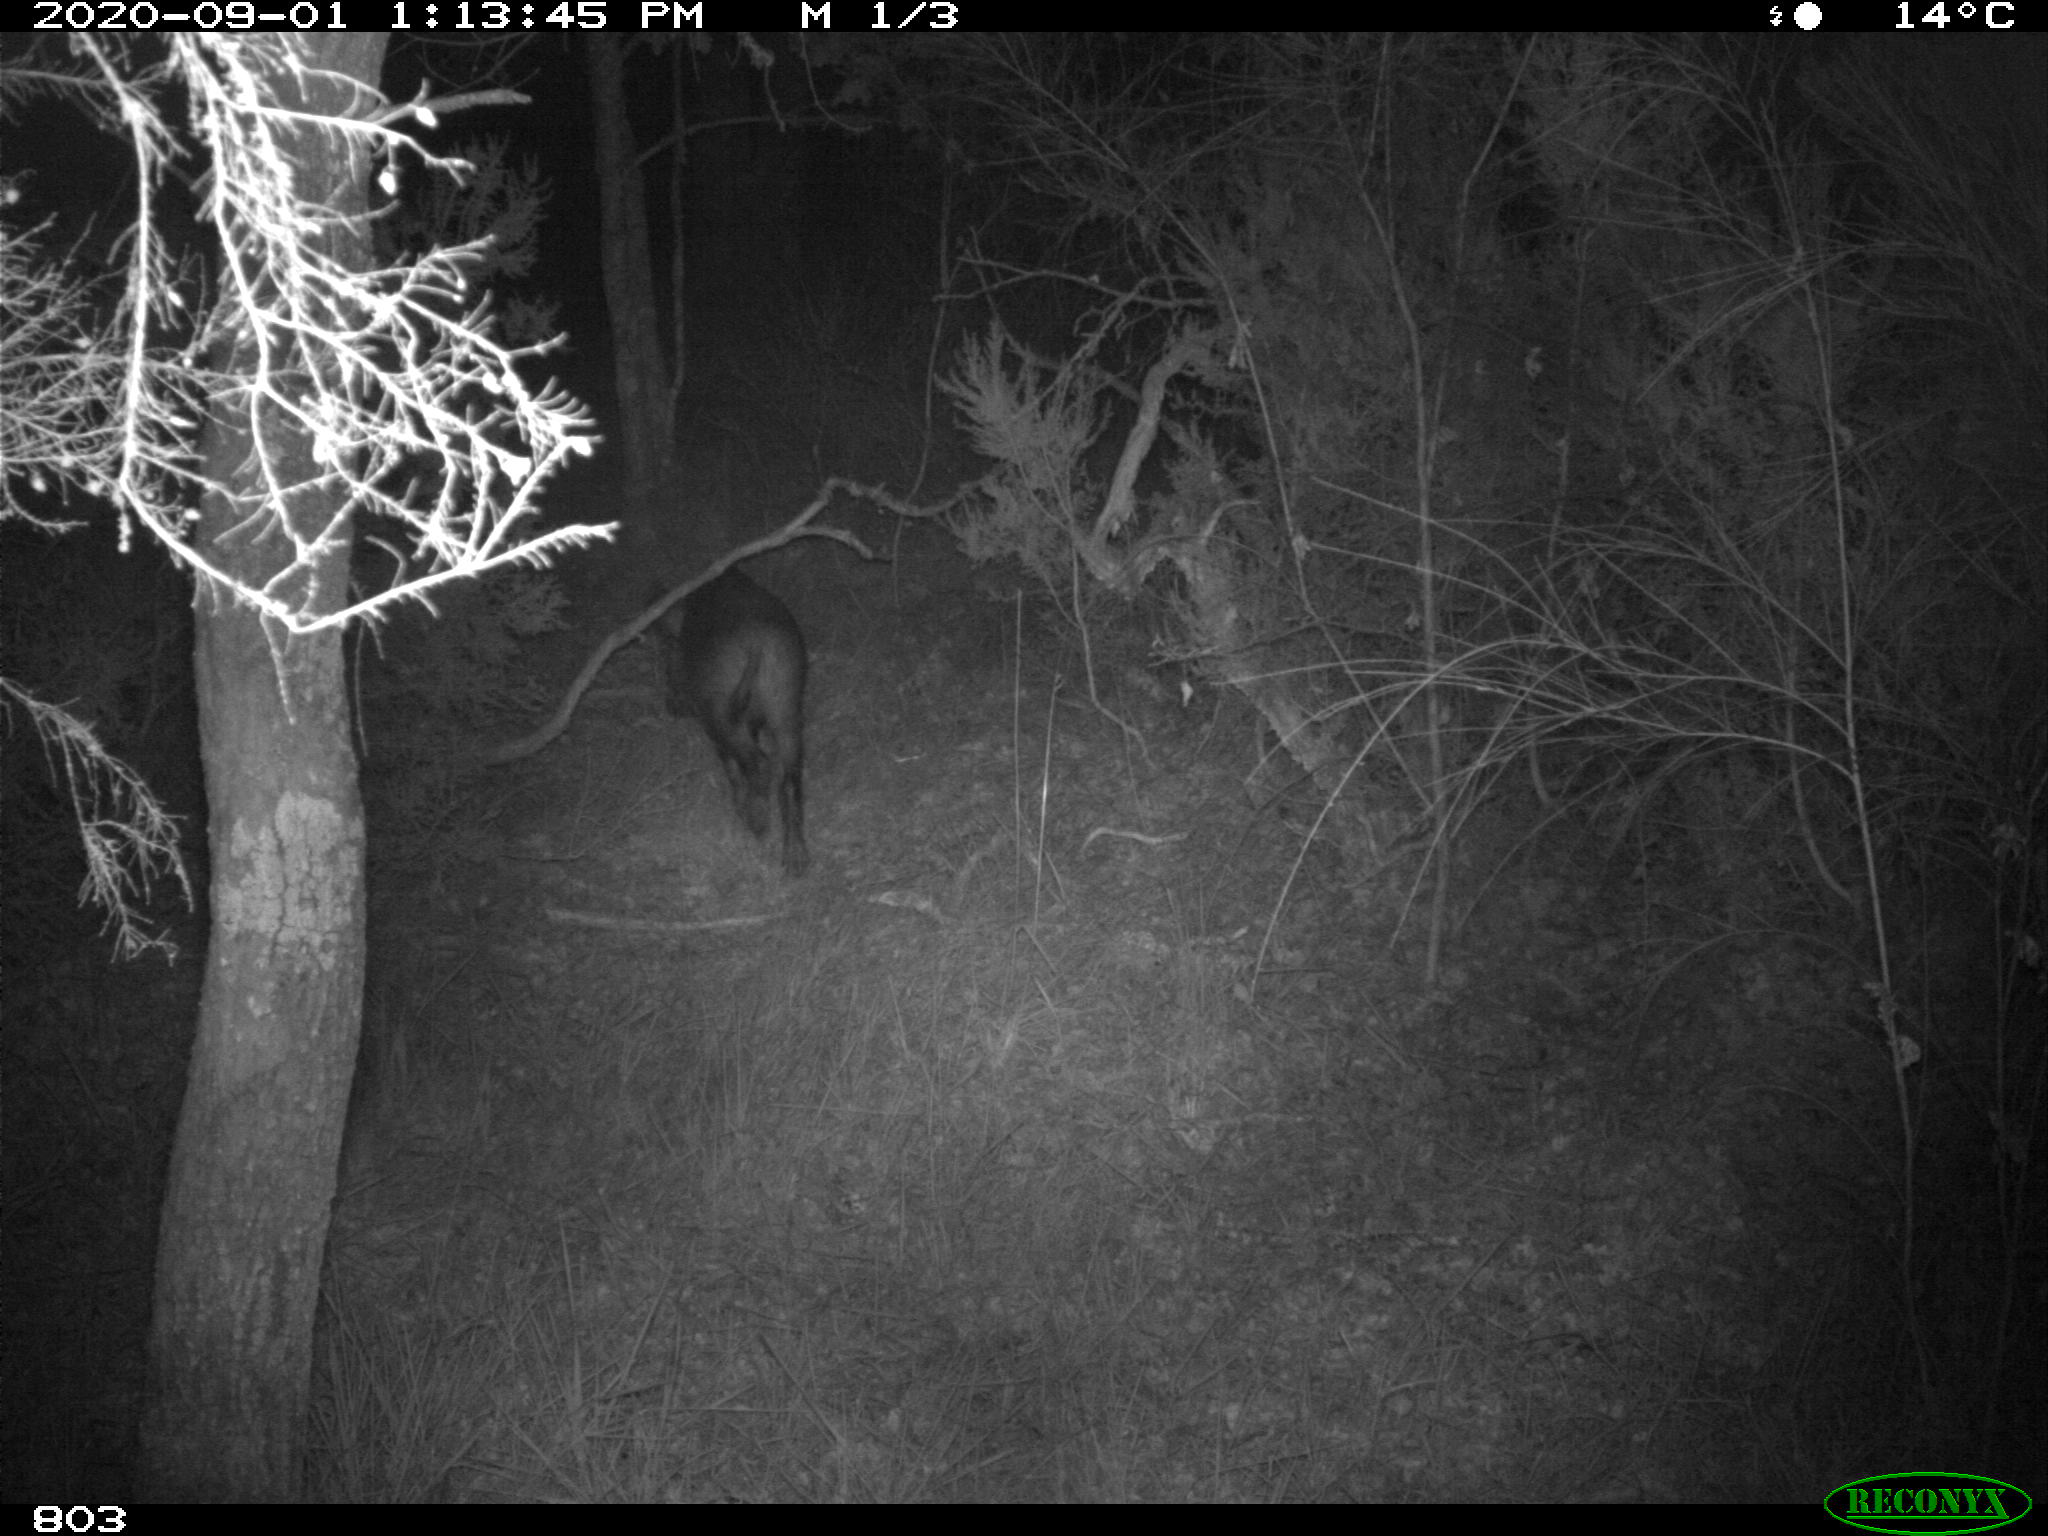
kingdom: Animalia
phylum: Chordata
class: Mammalia
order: Artiodactyla
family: Suidae
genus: Sus
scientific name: Sus scrofa
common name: Wild boar
